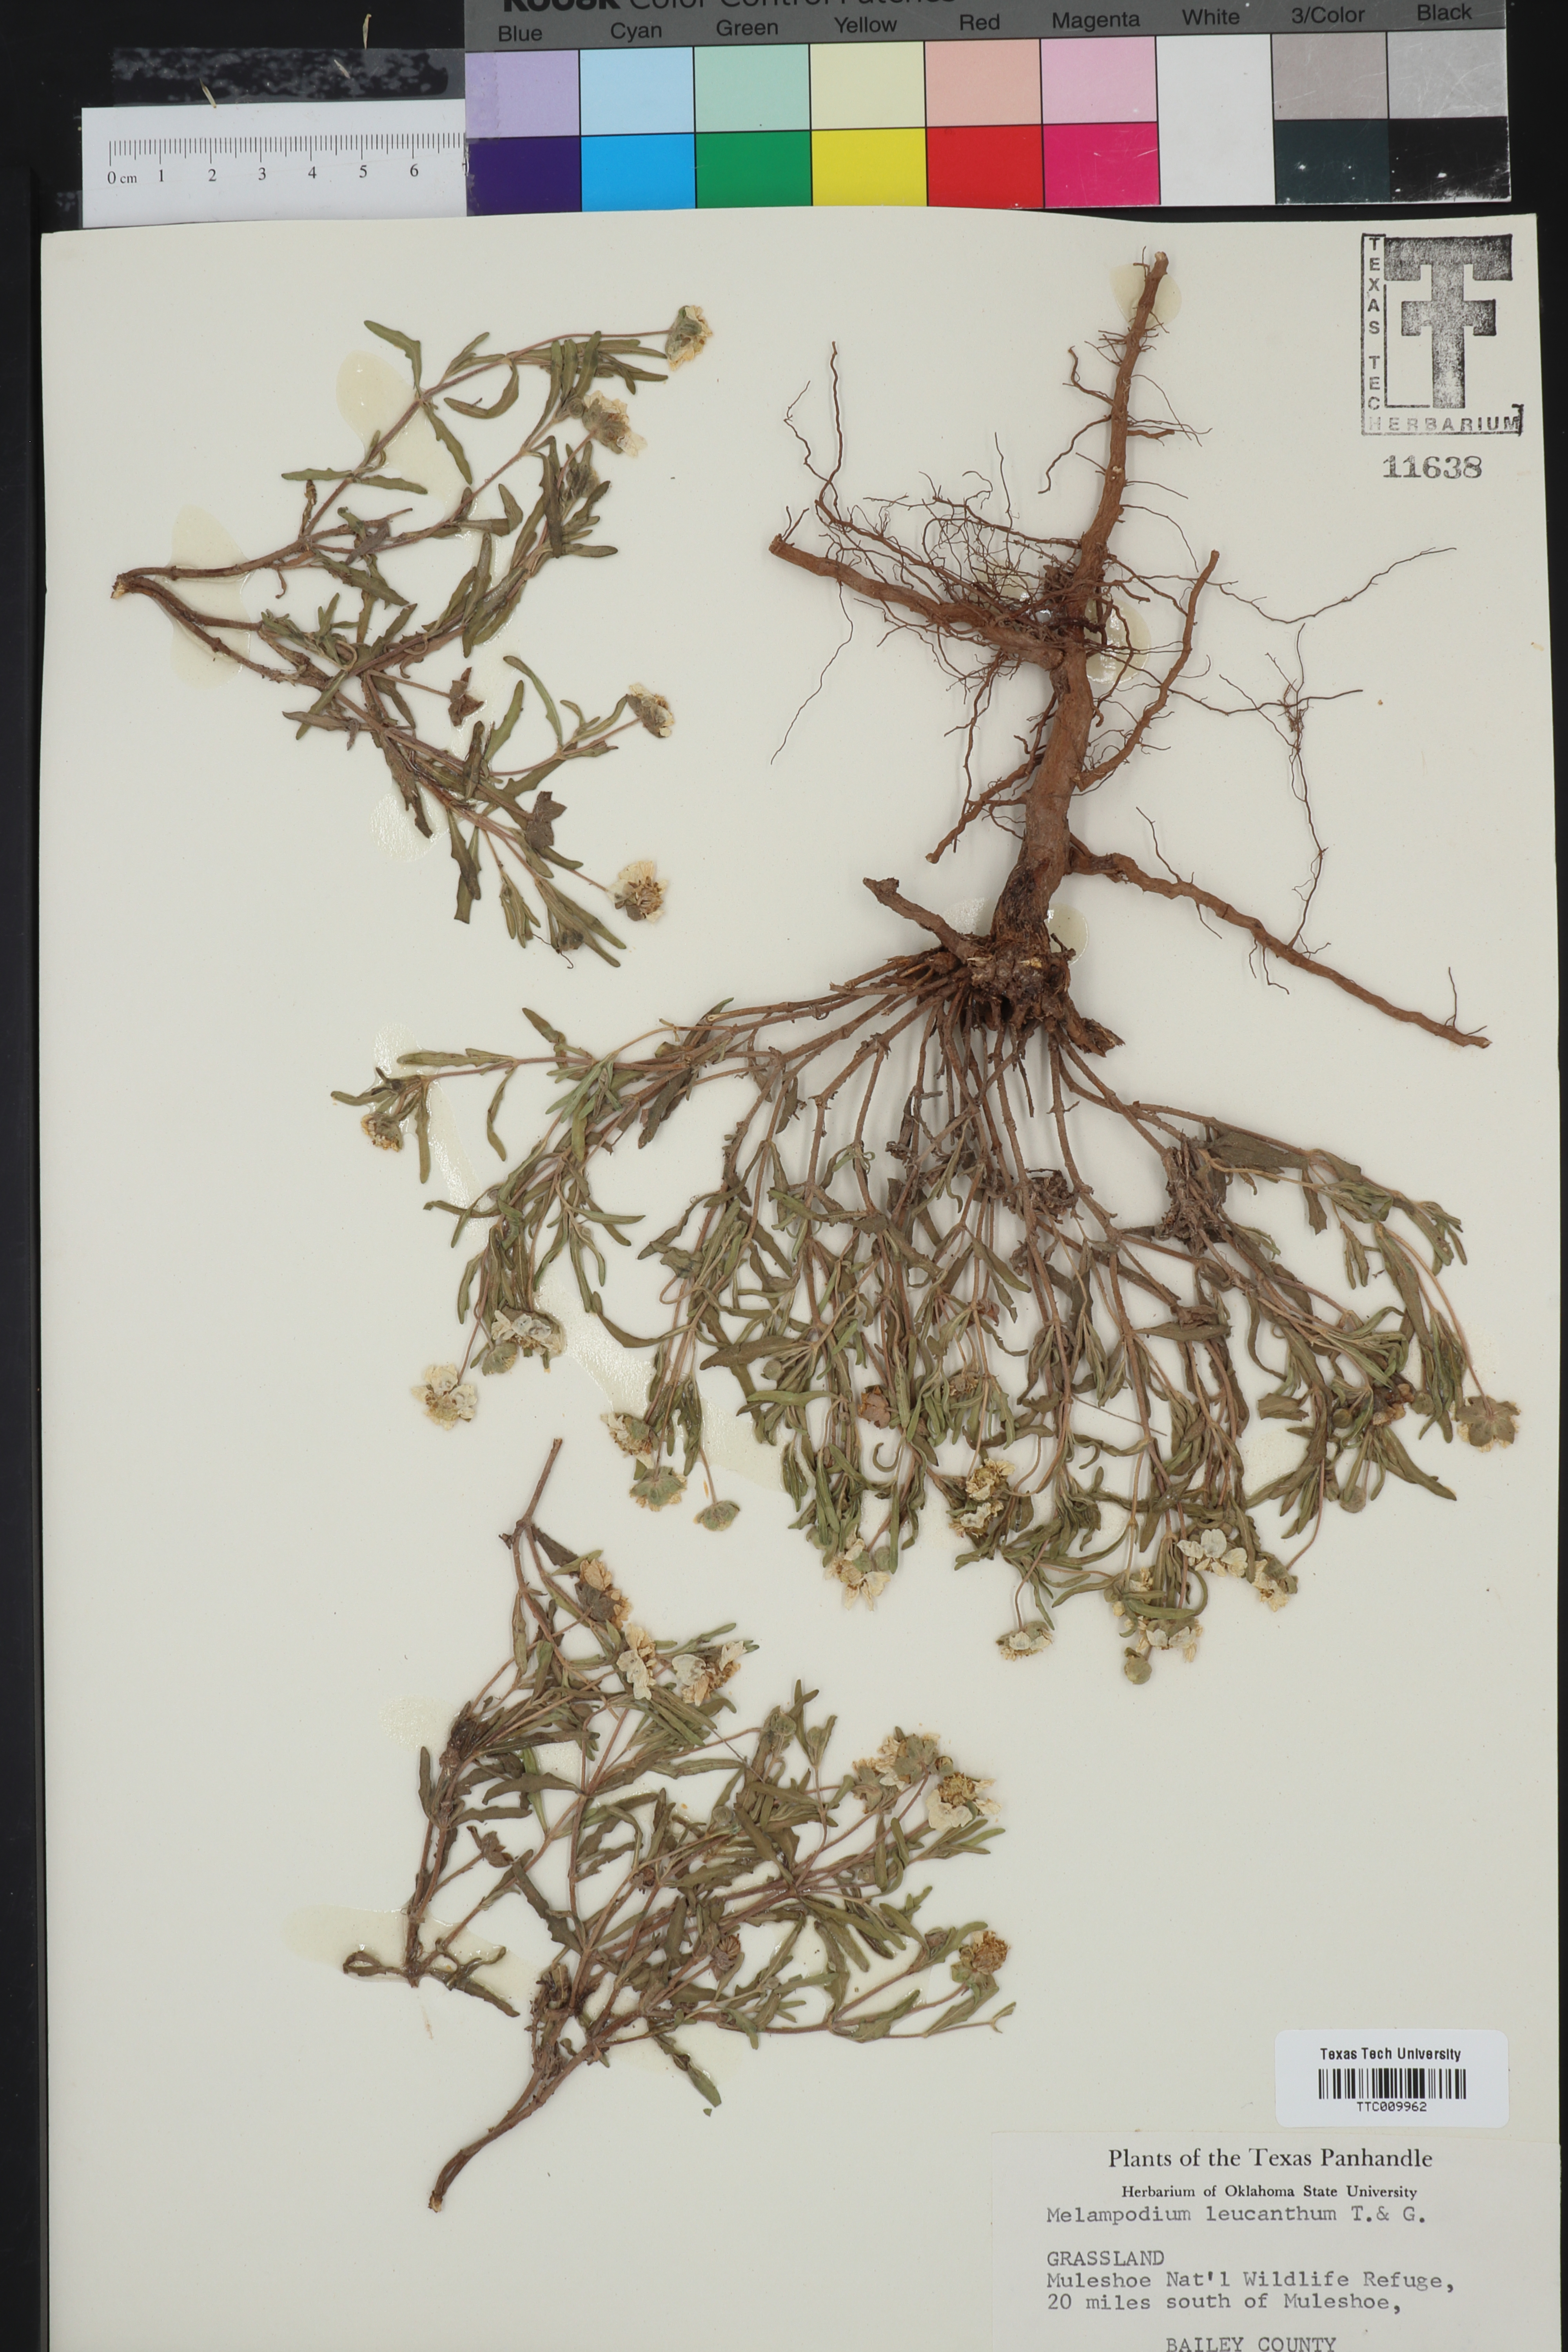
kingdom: Plantae
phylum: Tracheophyta
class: Magnoliopsida
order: Asterales
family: Asteraceae
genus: Melampodium
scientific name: Melampodium leucanthum
